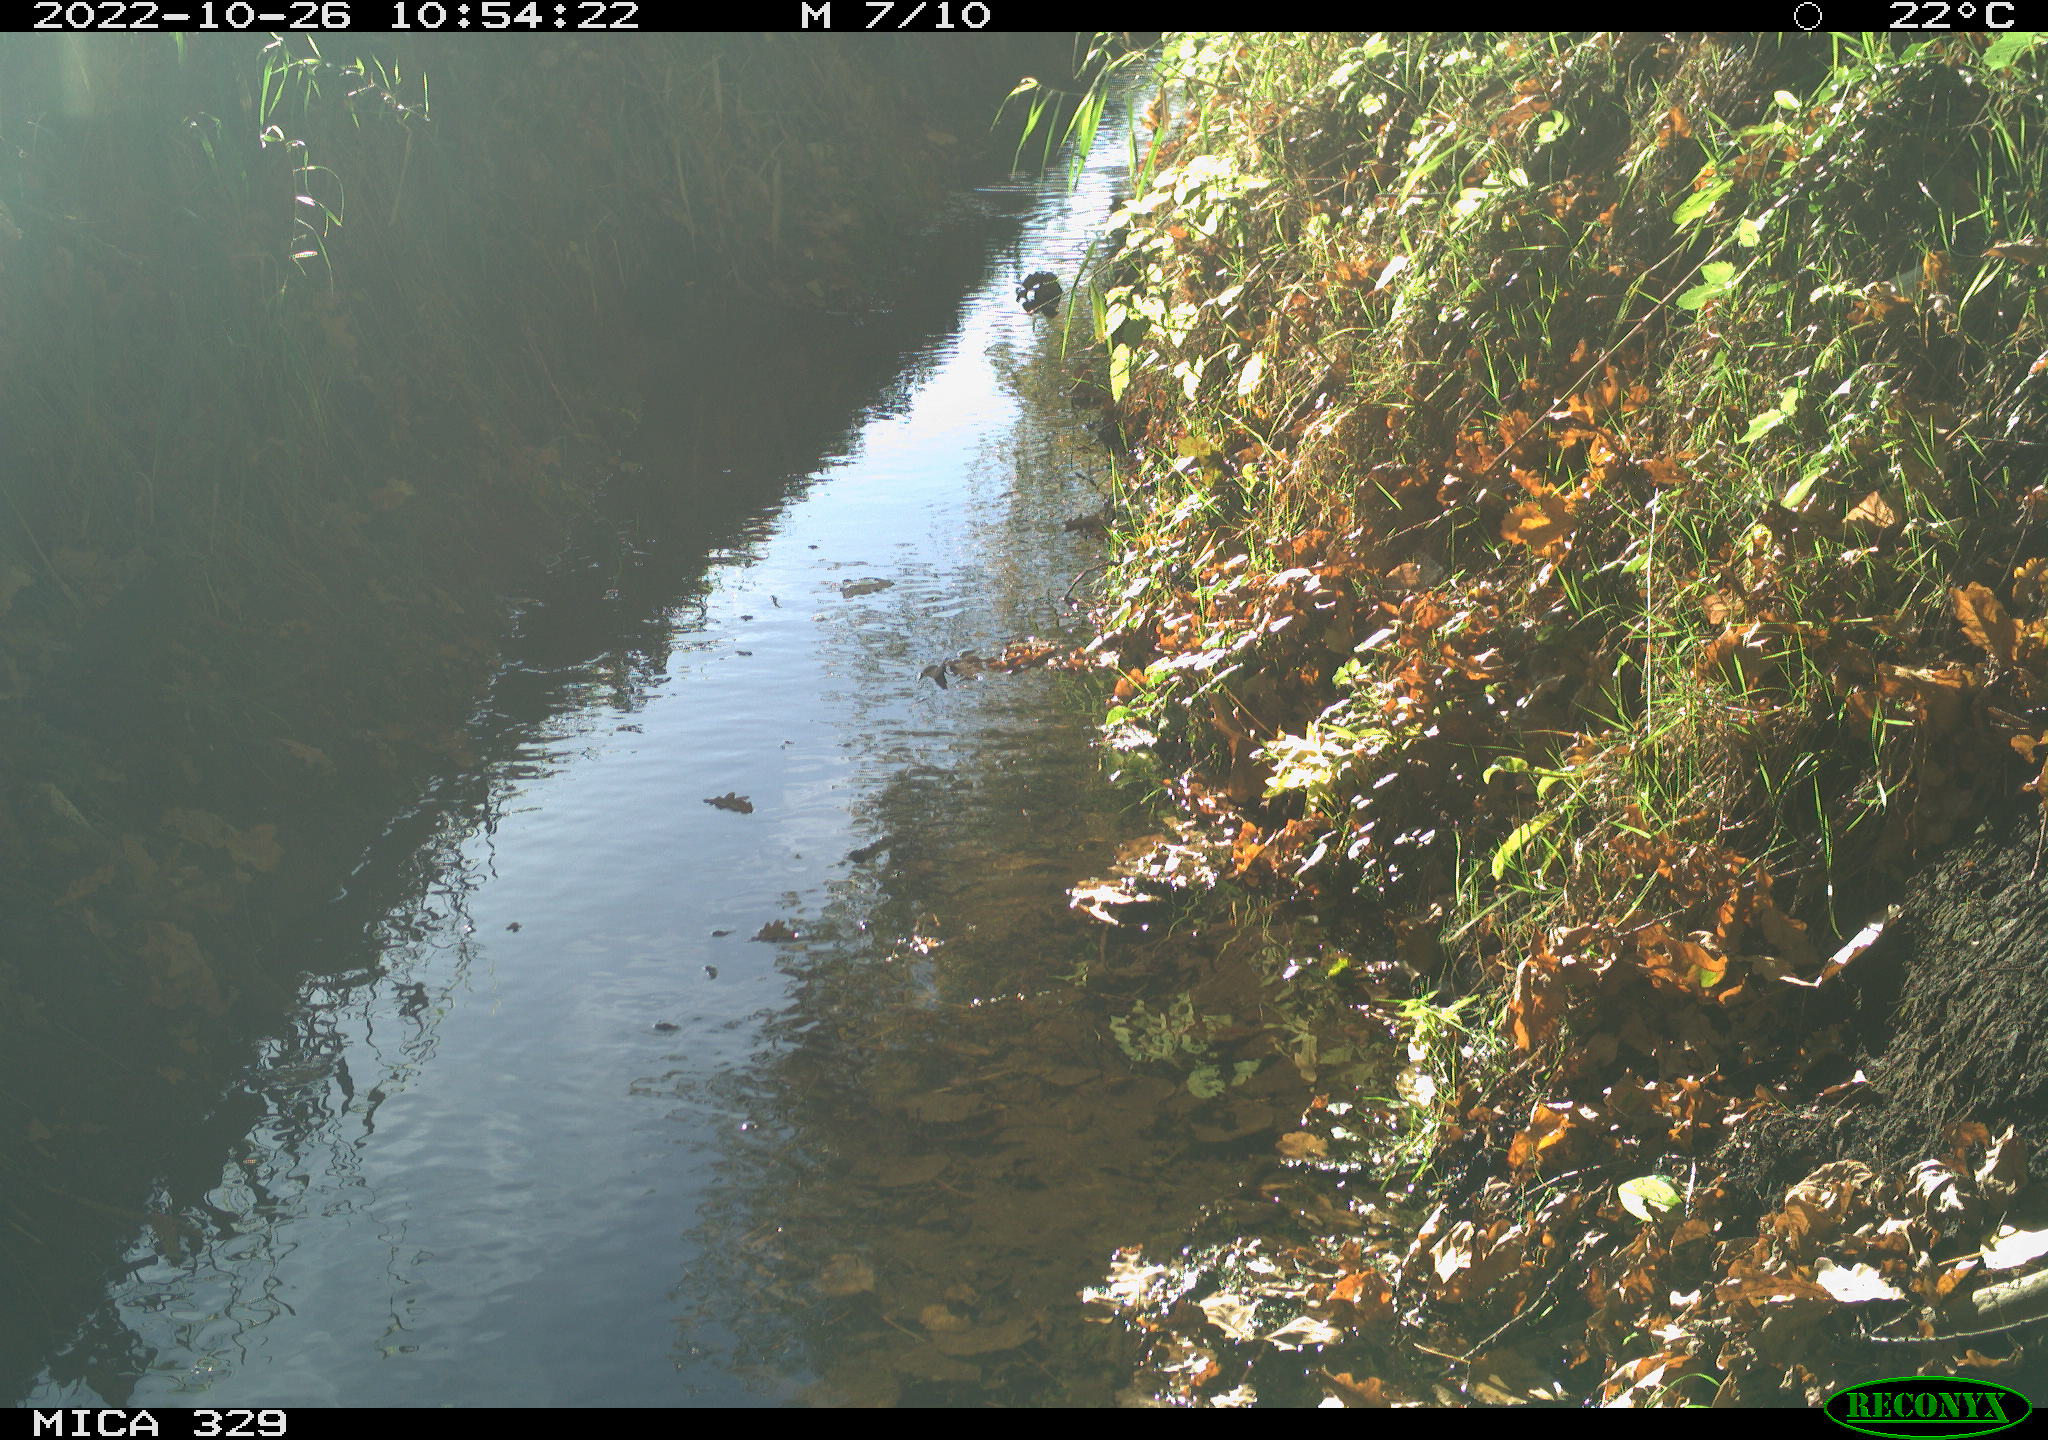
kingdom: Animalia
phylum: Chordata
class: Aves
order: Passeriformes
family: Turdidae
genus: Turdus
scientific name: Turdus merula
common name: Common blackbird
